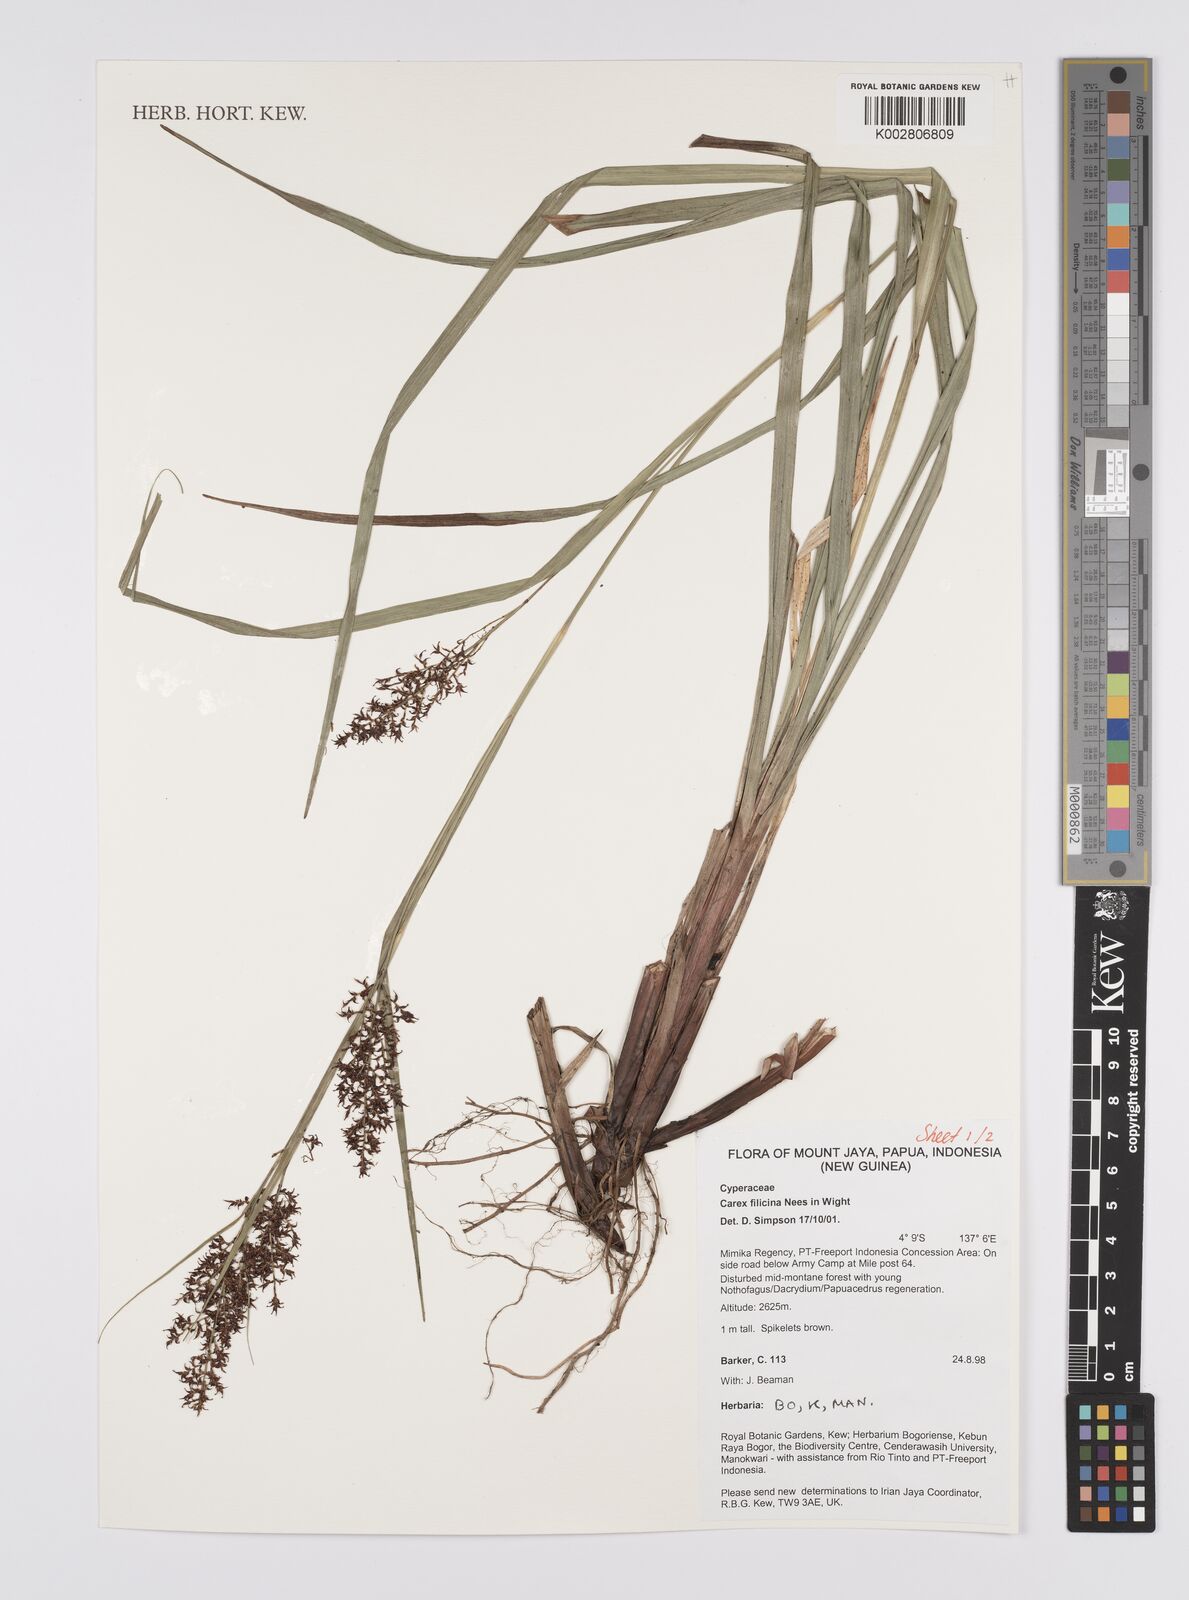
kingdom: Plantae
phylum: Tracheophyta
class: Liliopsida
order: Poales
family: Cyperaceae
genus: Carex
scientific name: Carex filicina
